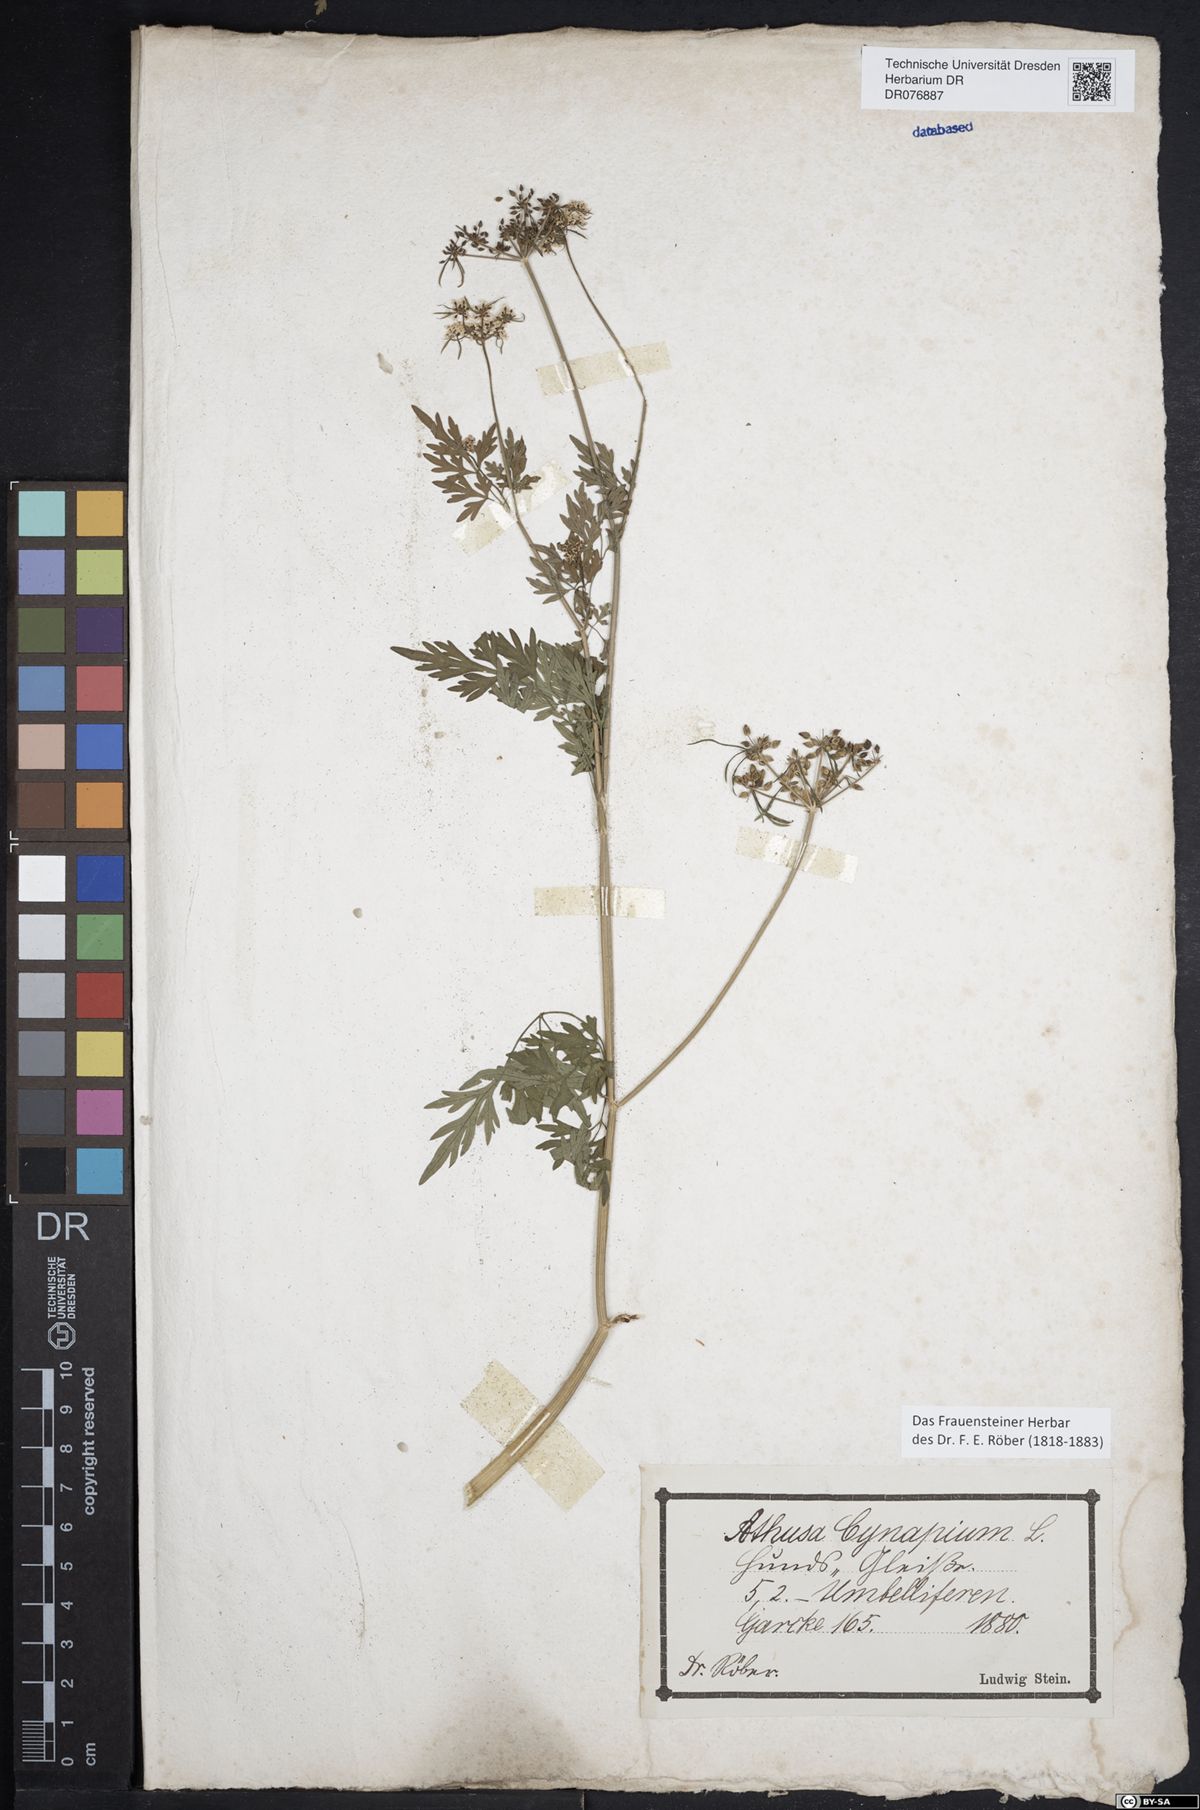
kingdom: Plantae
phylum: Tracheophyta
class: Magnoliopsida
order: Apiales
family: Apiaceae
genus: Aethusa
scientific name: Aethusa cynapium
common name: Fool's parsley
